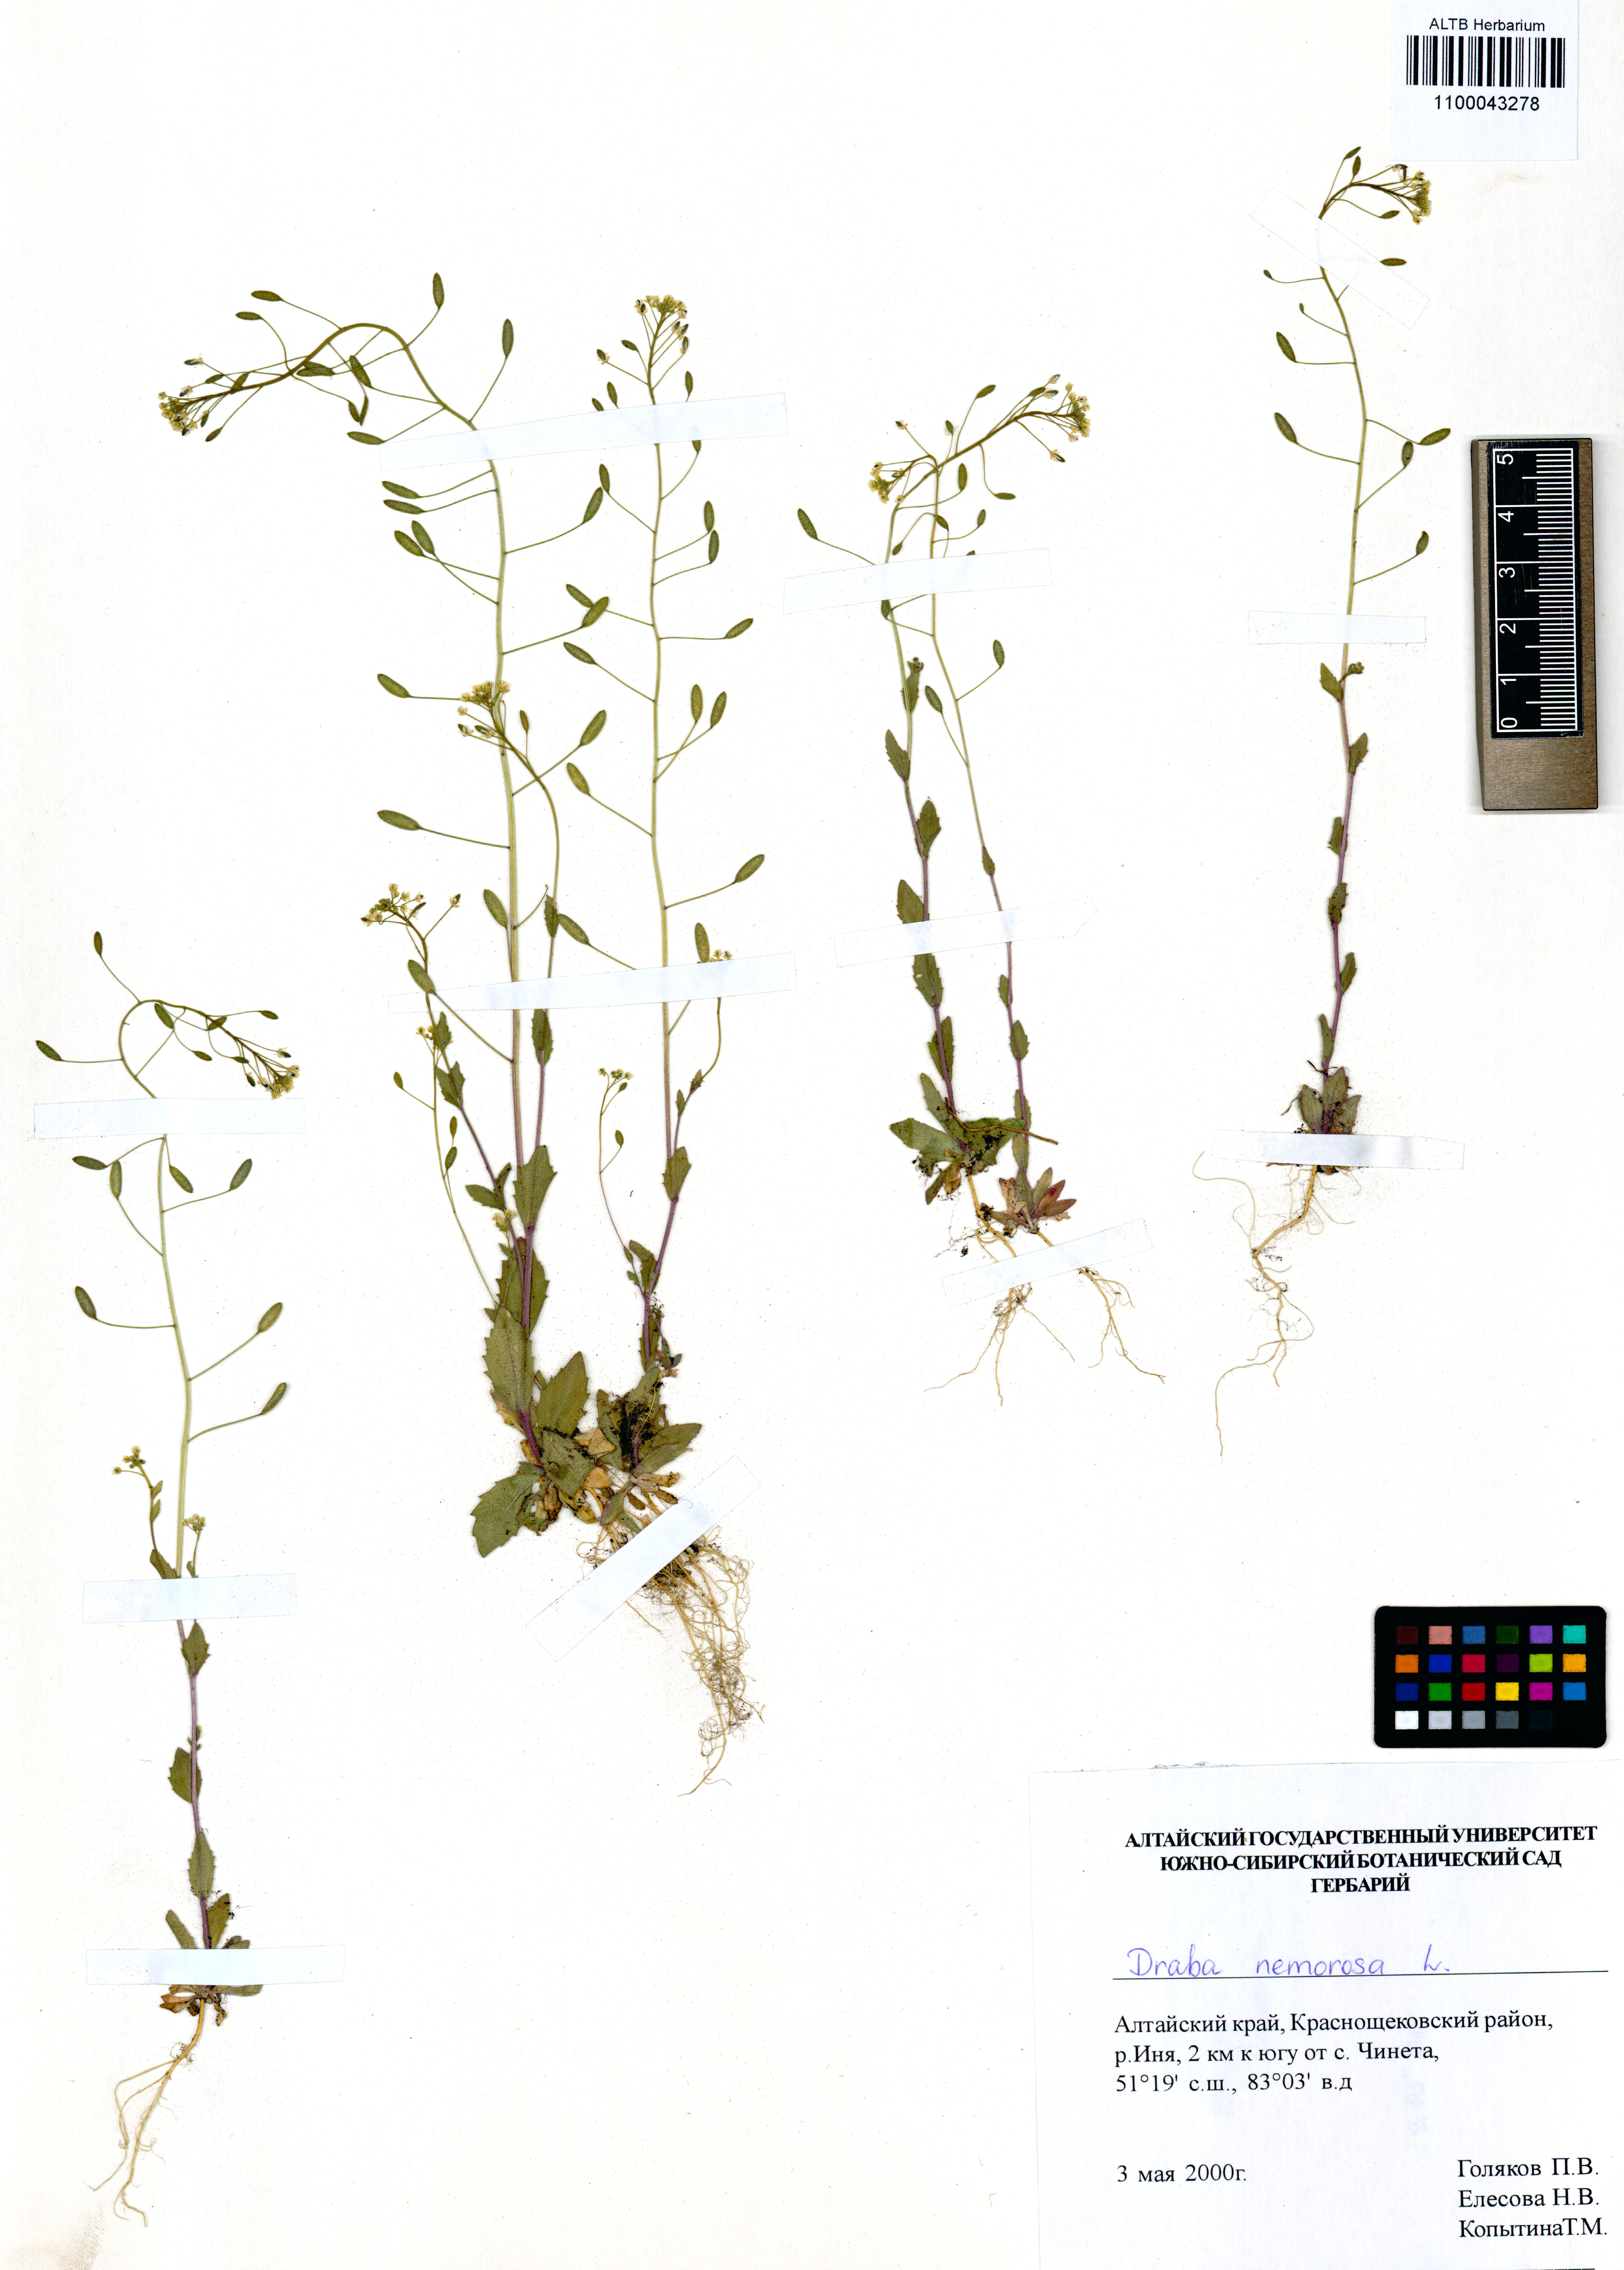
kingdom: Plantae
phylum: Tracheophyta
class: Magnoliopsida
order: Brassicales
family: Brassicaceae
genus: Draba
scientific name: Draba nemorosa
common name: Wood whitlow-grass
